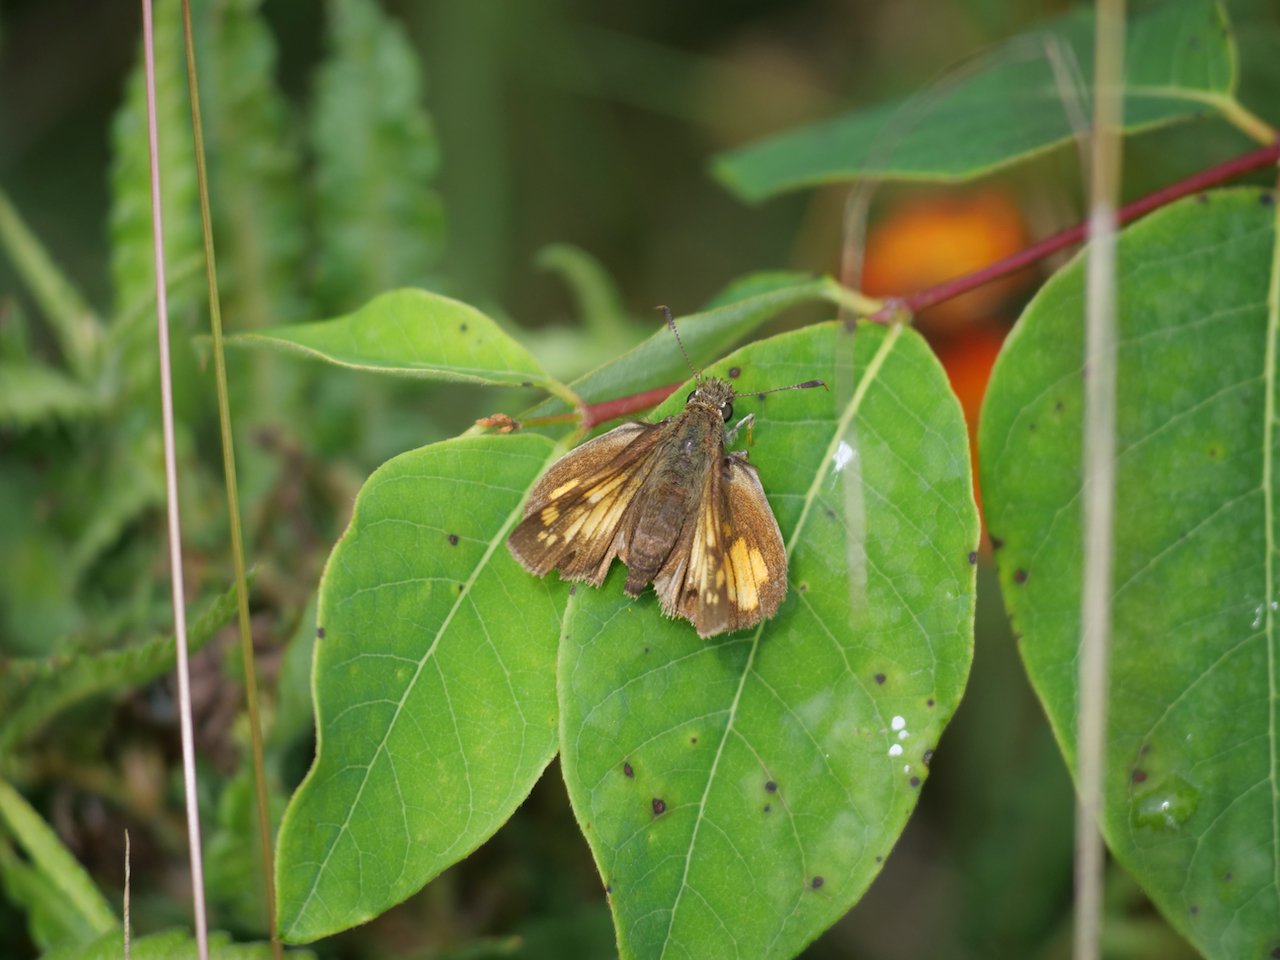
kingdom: Animalia
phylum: Arthropoda
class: Insecta
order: Lepidoptera
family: Hesperiidae
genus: Lon
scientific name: Lon hobomok
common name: Hobomok Skipper
